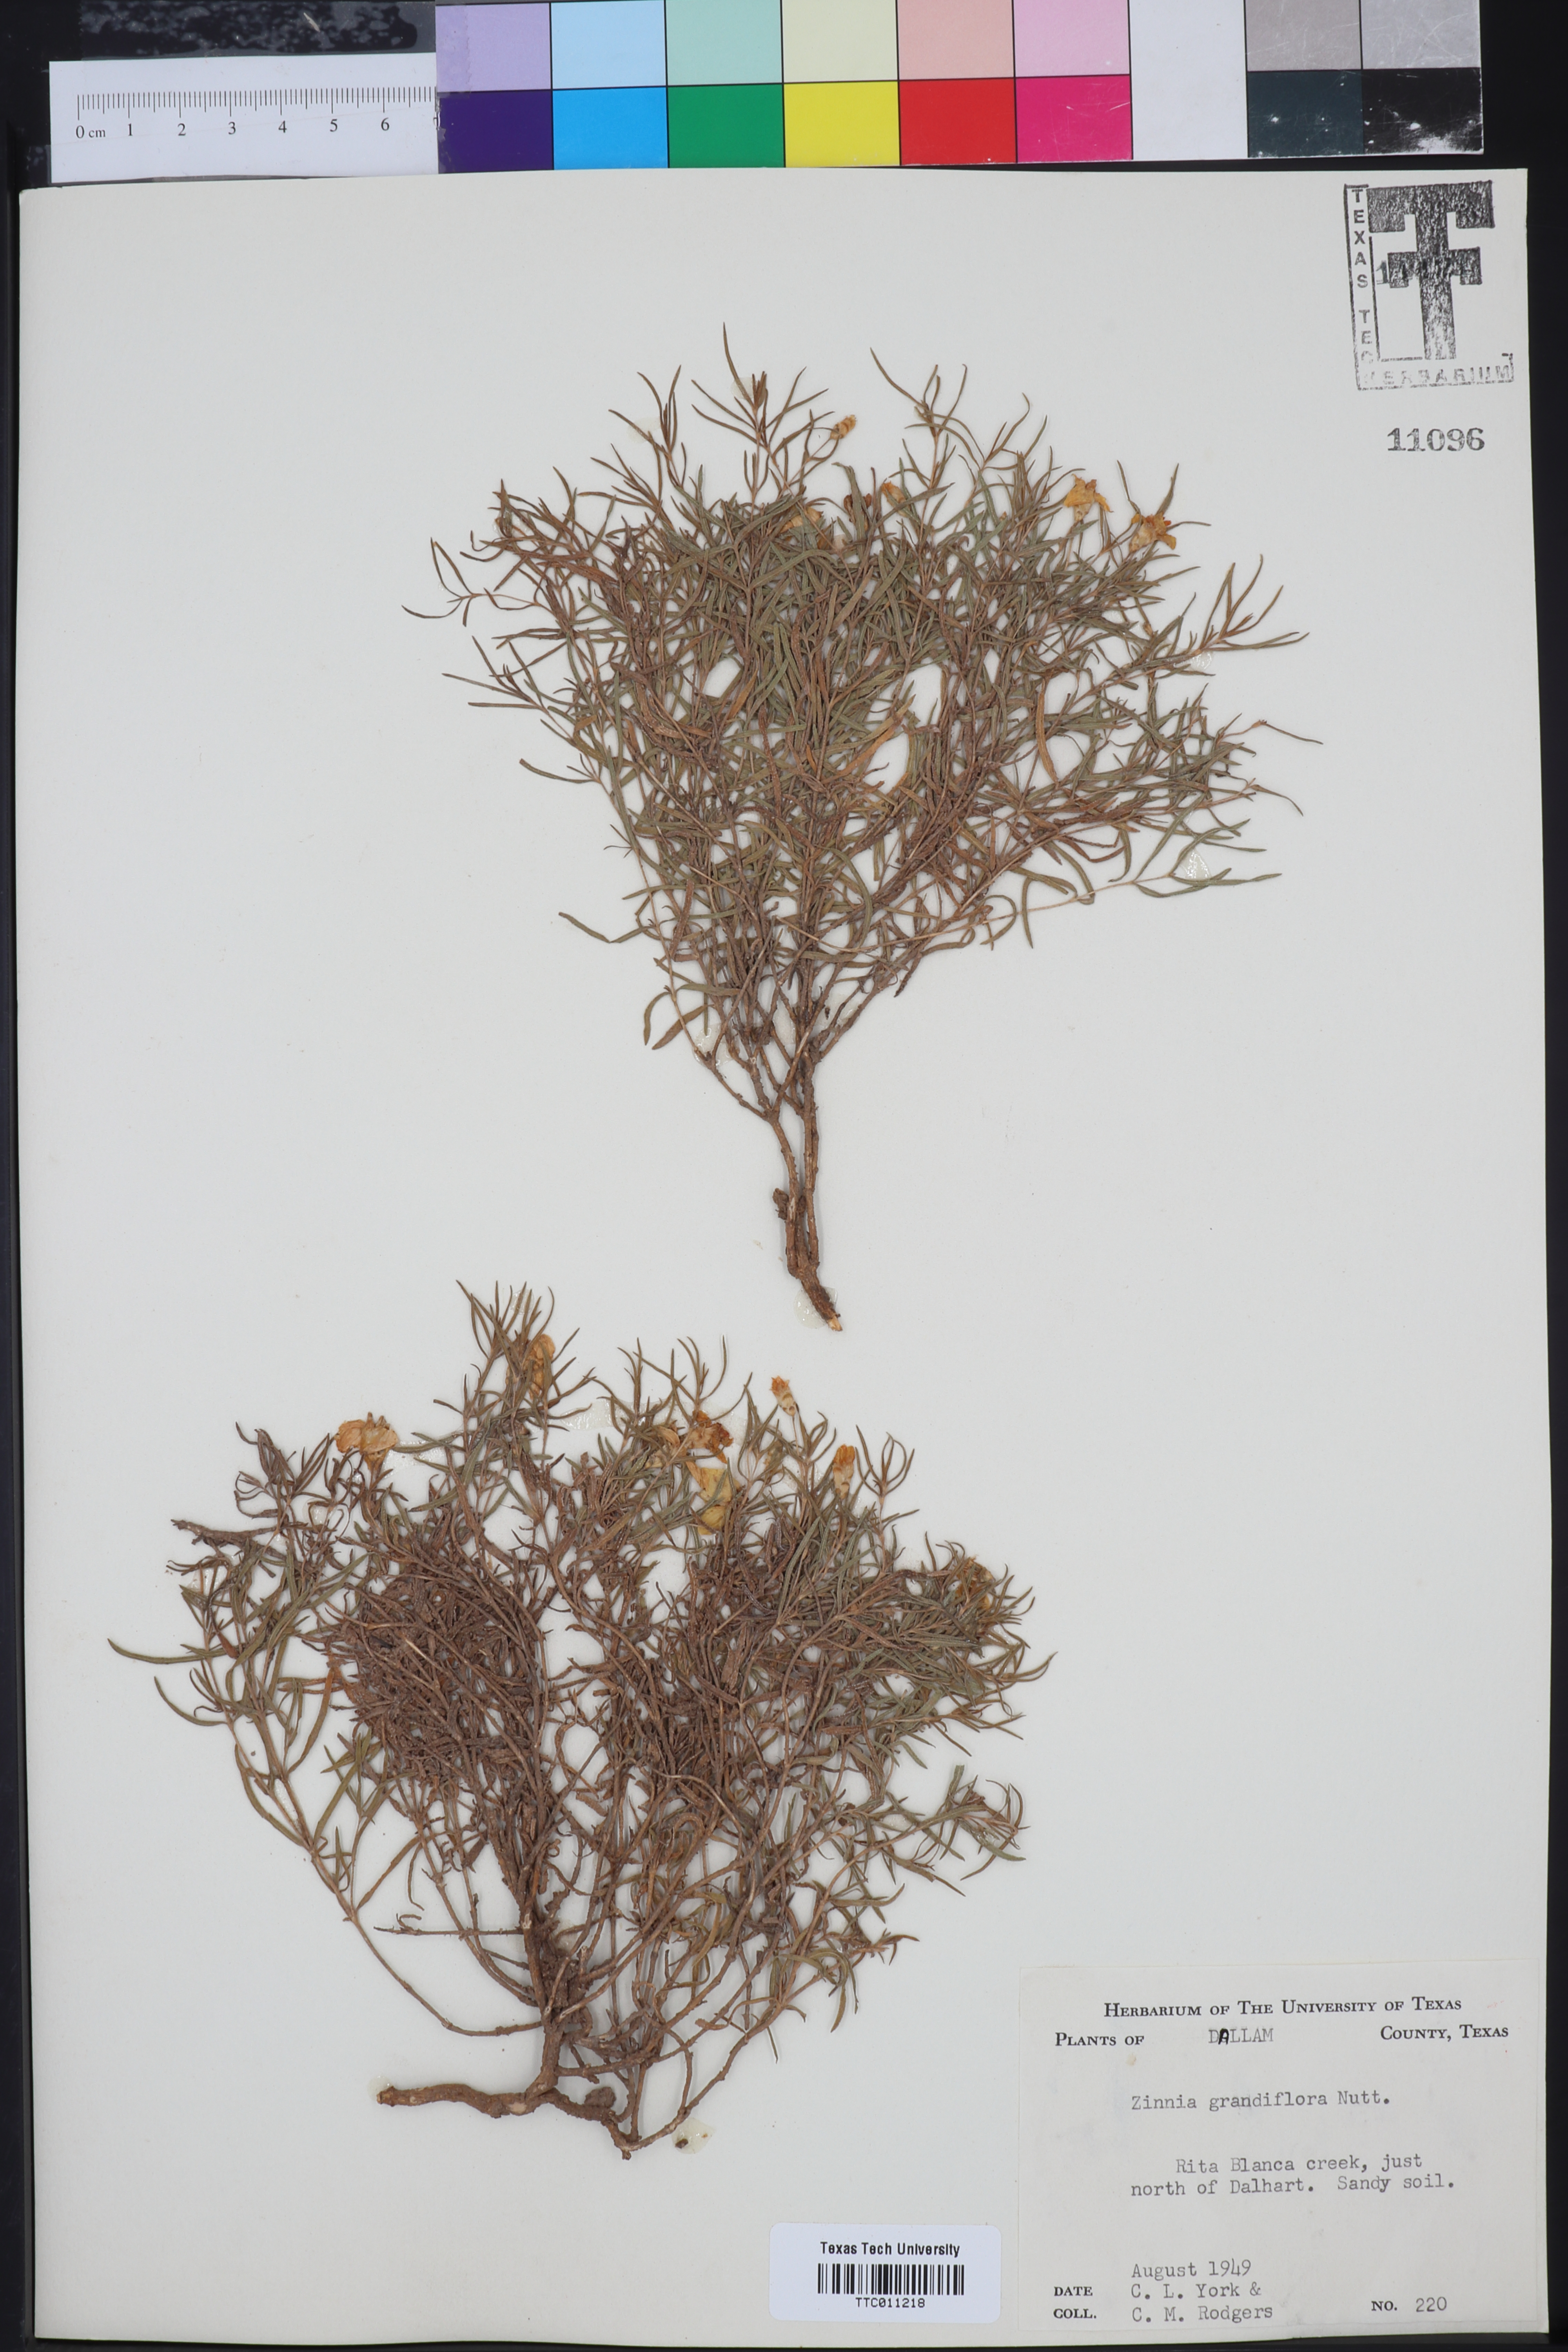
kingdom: Plantae
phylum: Tracheophyta
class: Magnoliopsida
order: Asterales
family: Asteraceae
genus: Zinnia
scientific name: Zinnia grandiflora
